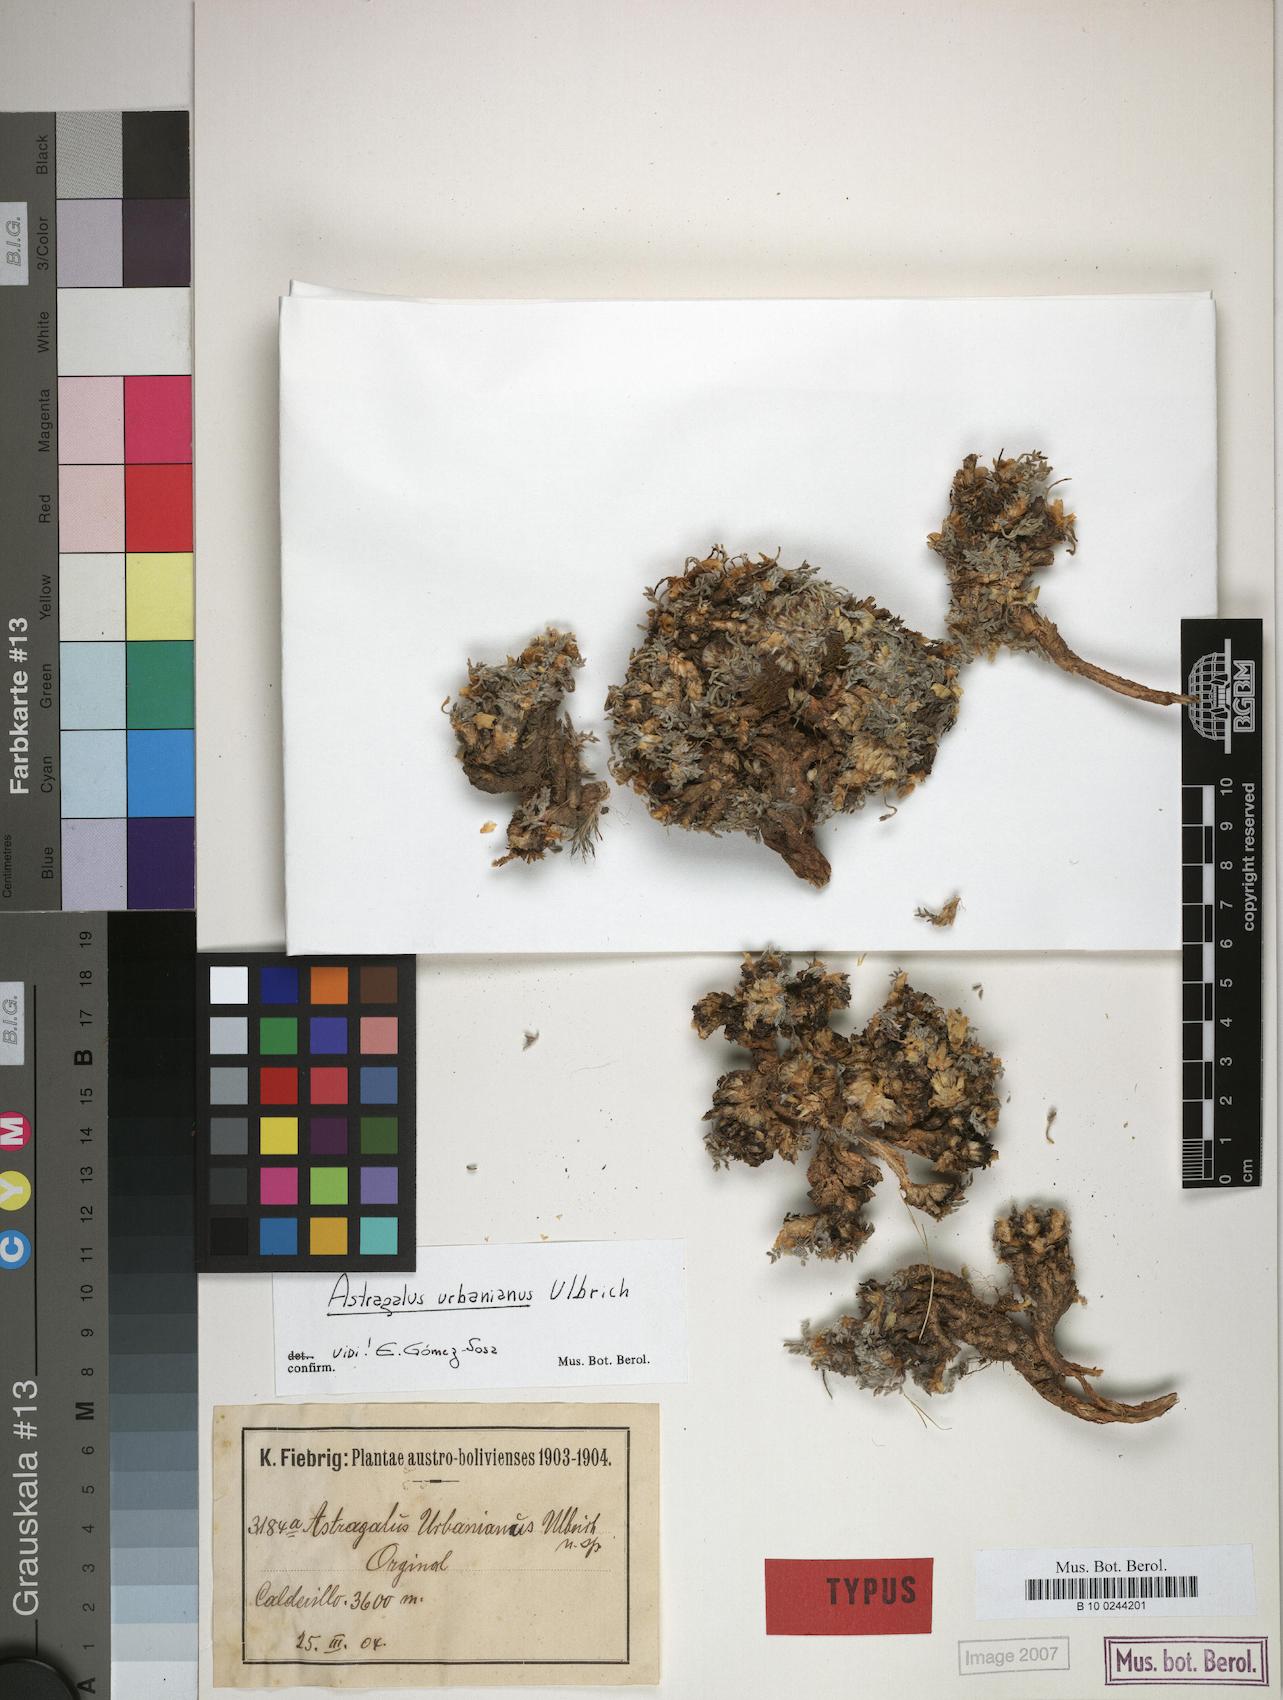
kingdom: Plantae
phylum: Tracheophyta
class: Magnoliopsida
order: Fabales
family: Fabaceae
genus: Astragalus
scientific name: Astragalus urbanianus
